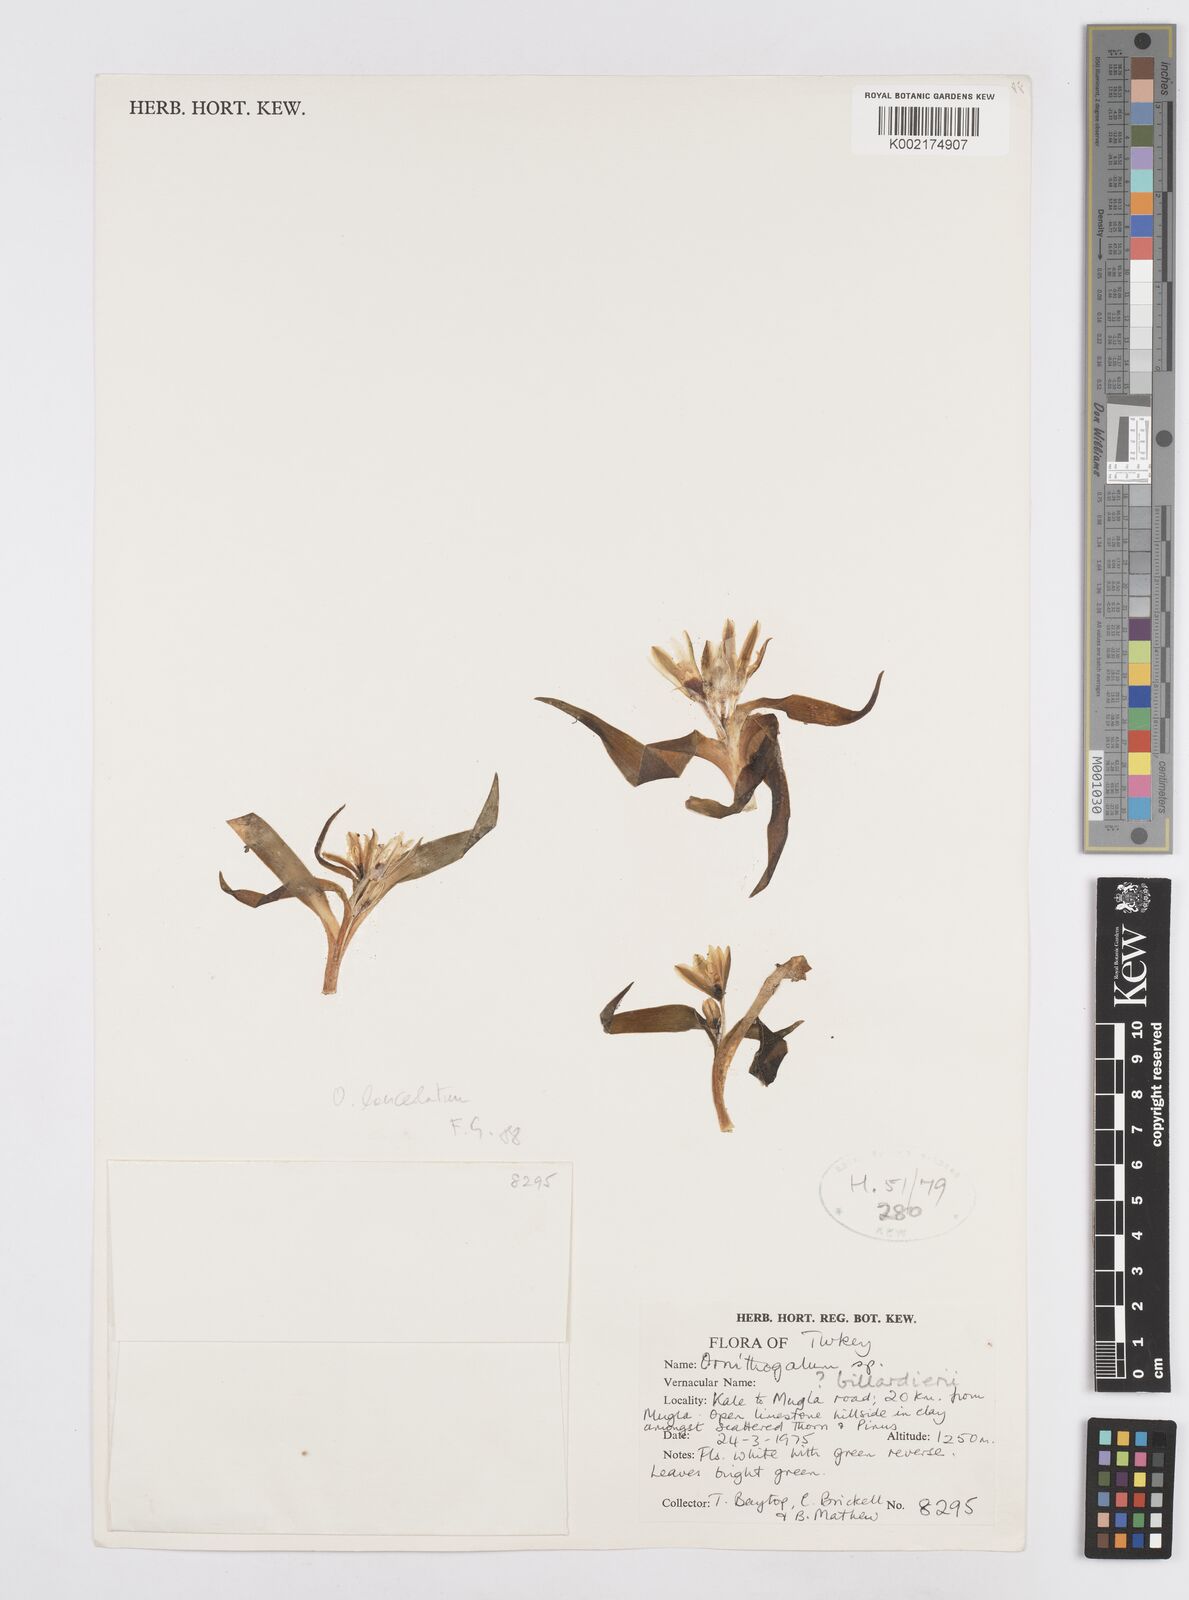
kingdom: Plantae
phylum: Tracheophyta
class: Liliopsida
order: Asparagales
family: Asparagaceae
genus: Ornithogalum
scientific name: Ornithogalum
